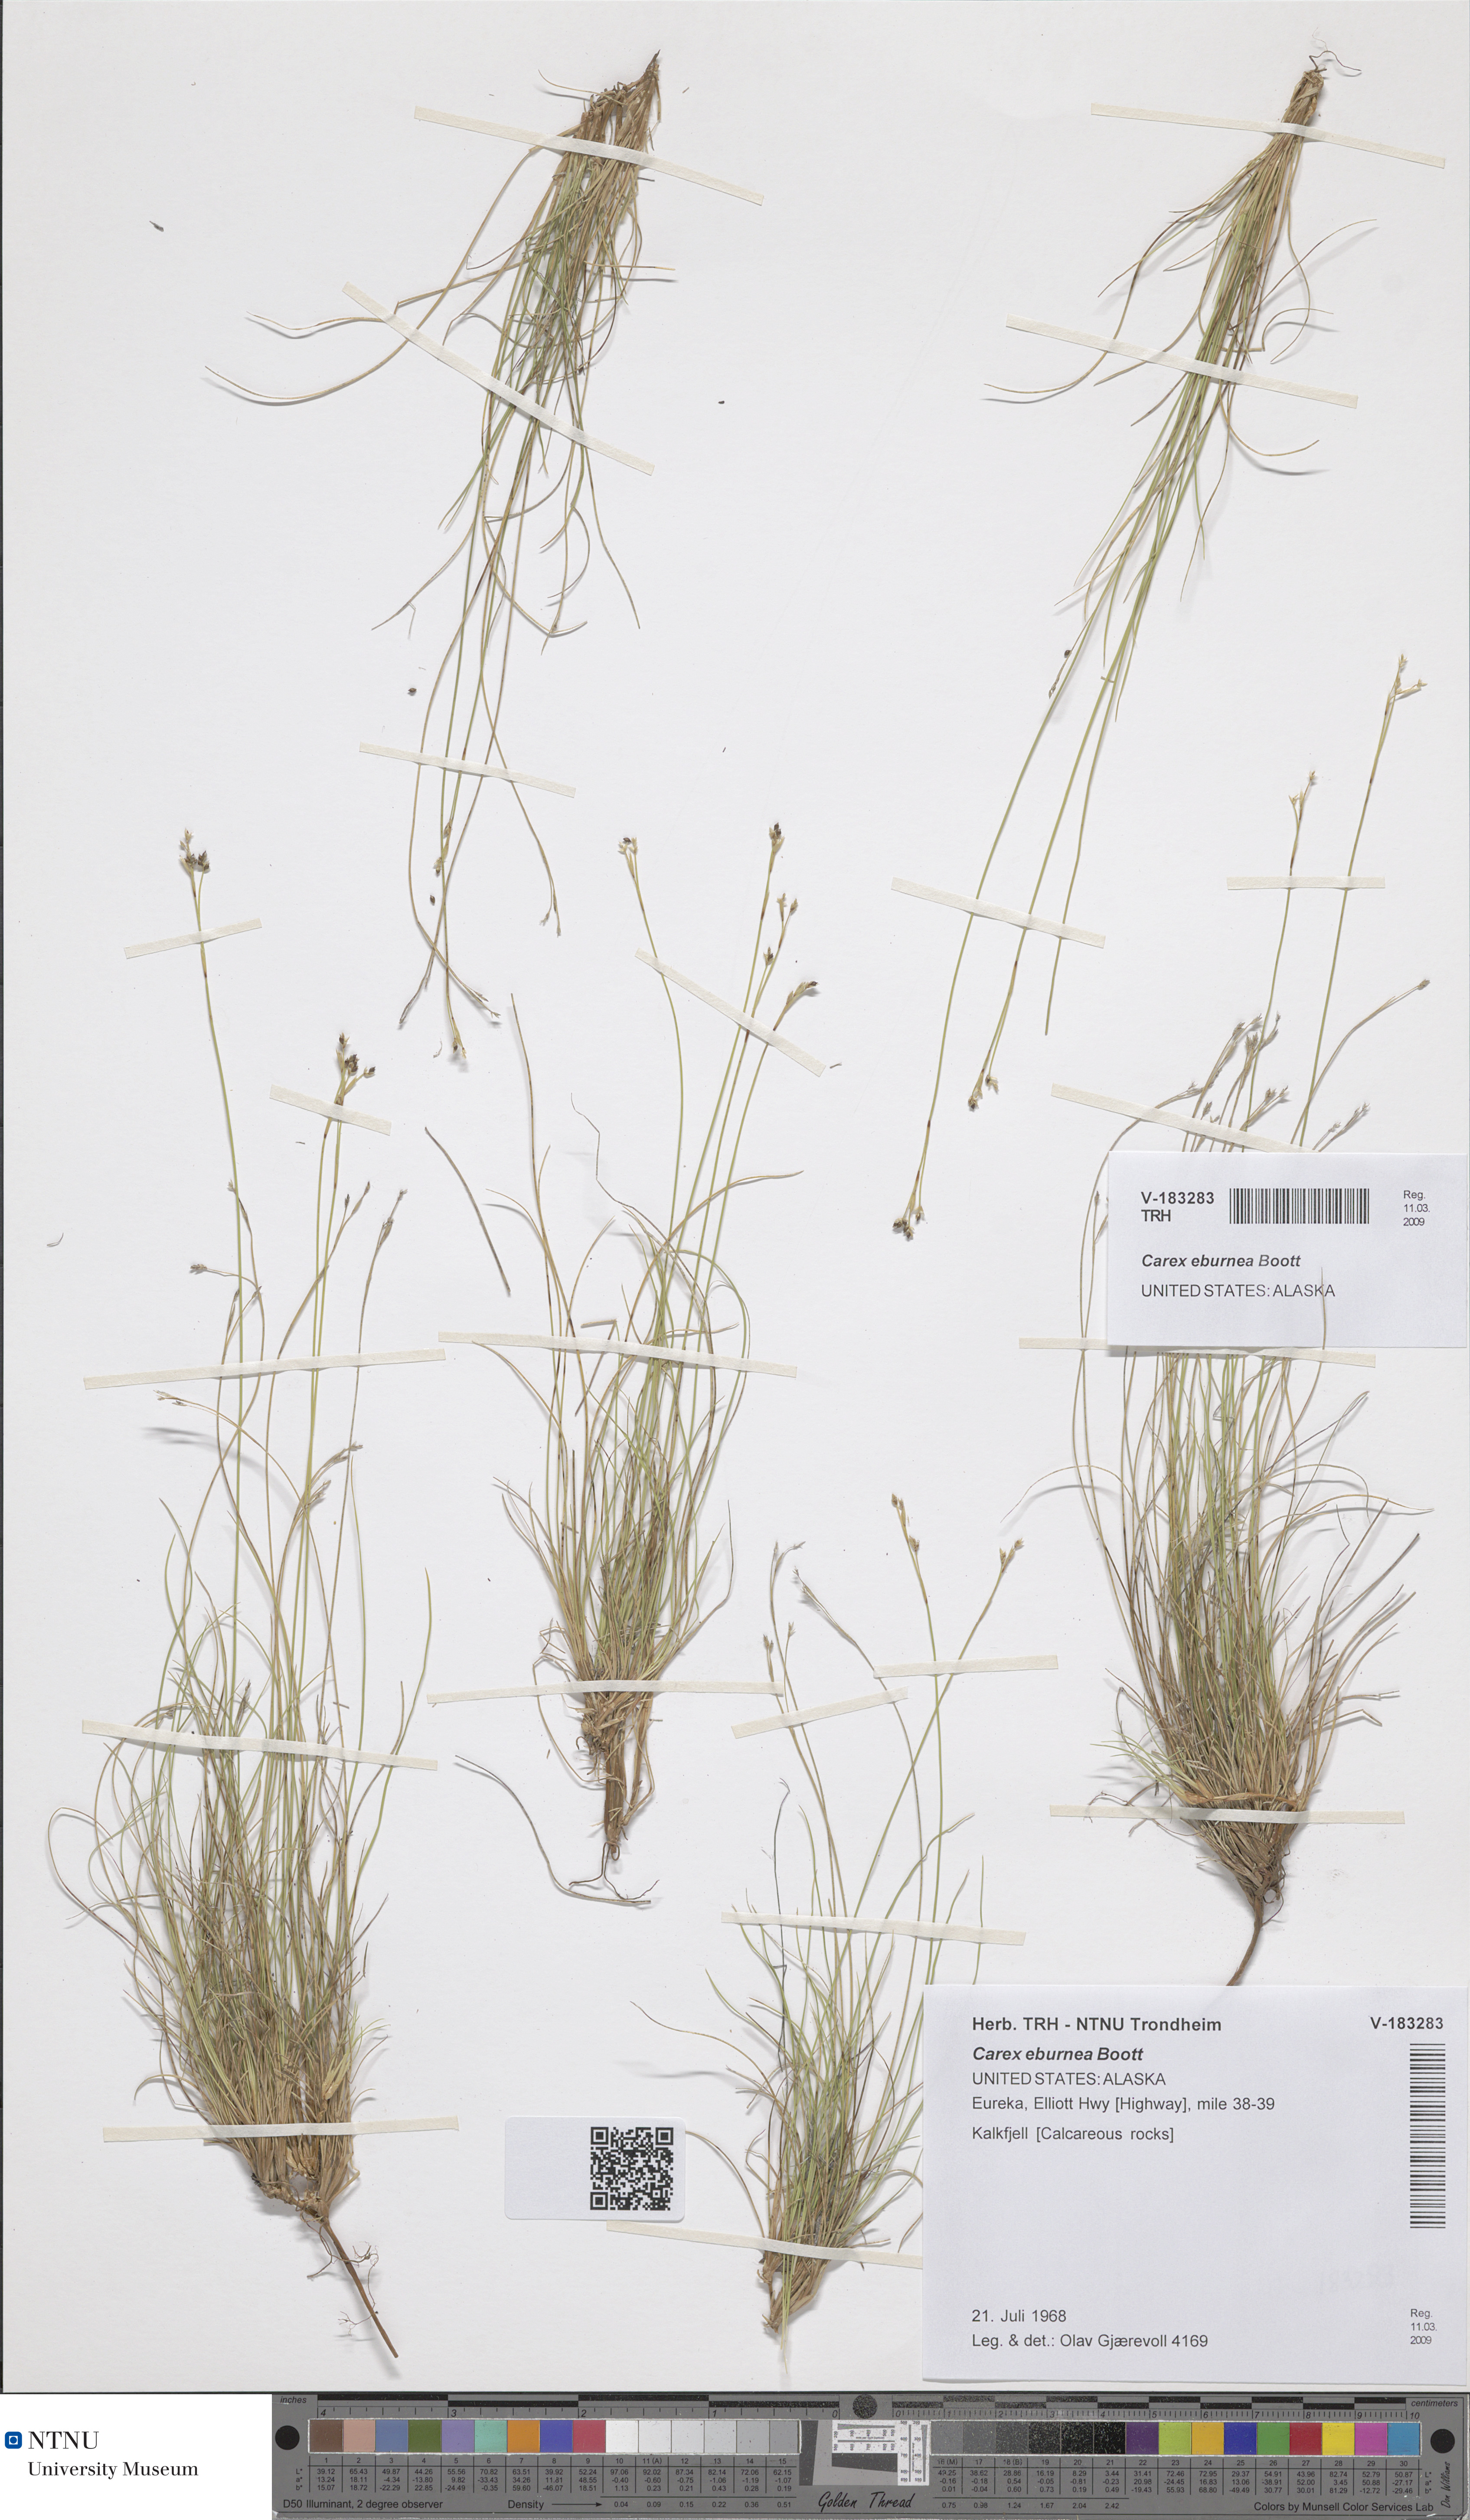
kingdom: Plantae
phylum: Tracheophyta
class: Liliopsida
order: Poales
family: Cyperaceae
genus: Carex
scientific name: Carex eburnea
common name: Bristle-leaved sedge
